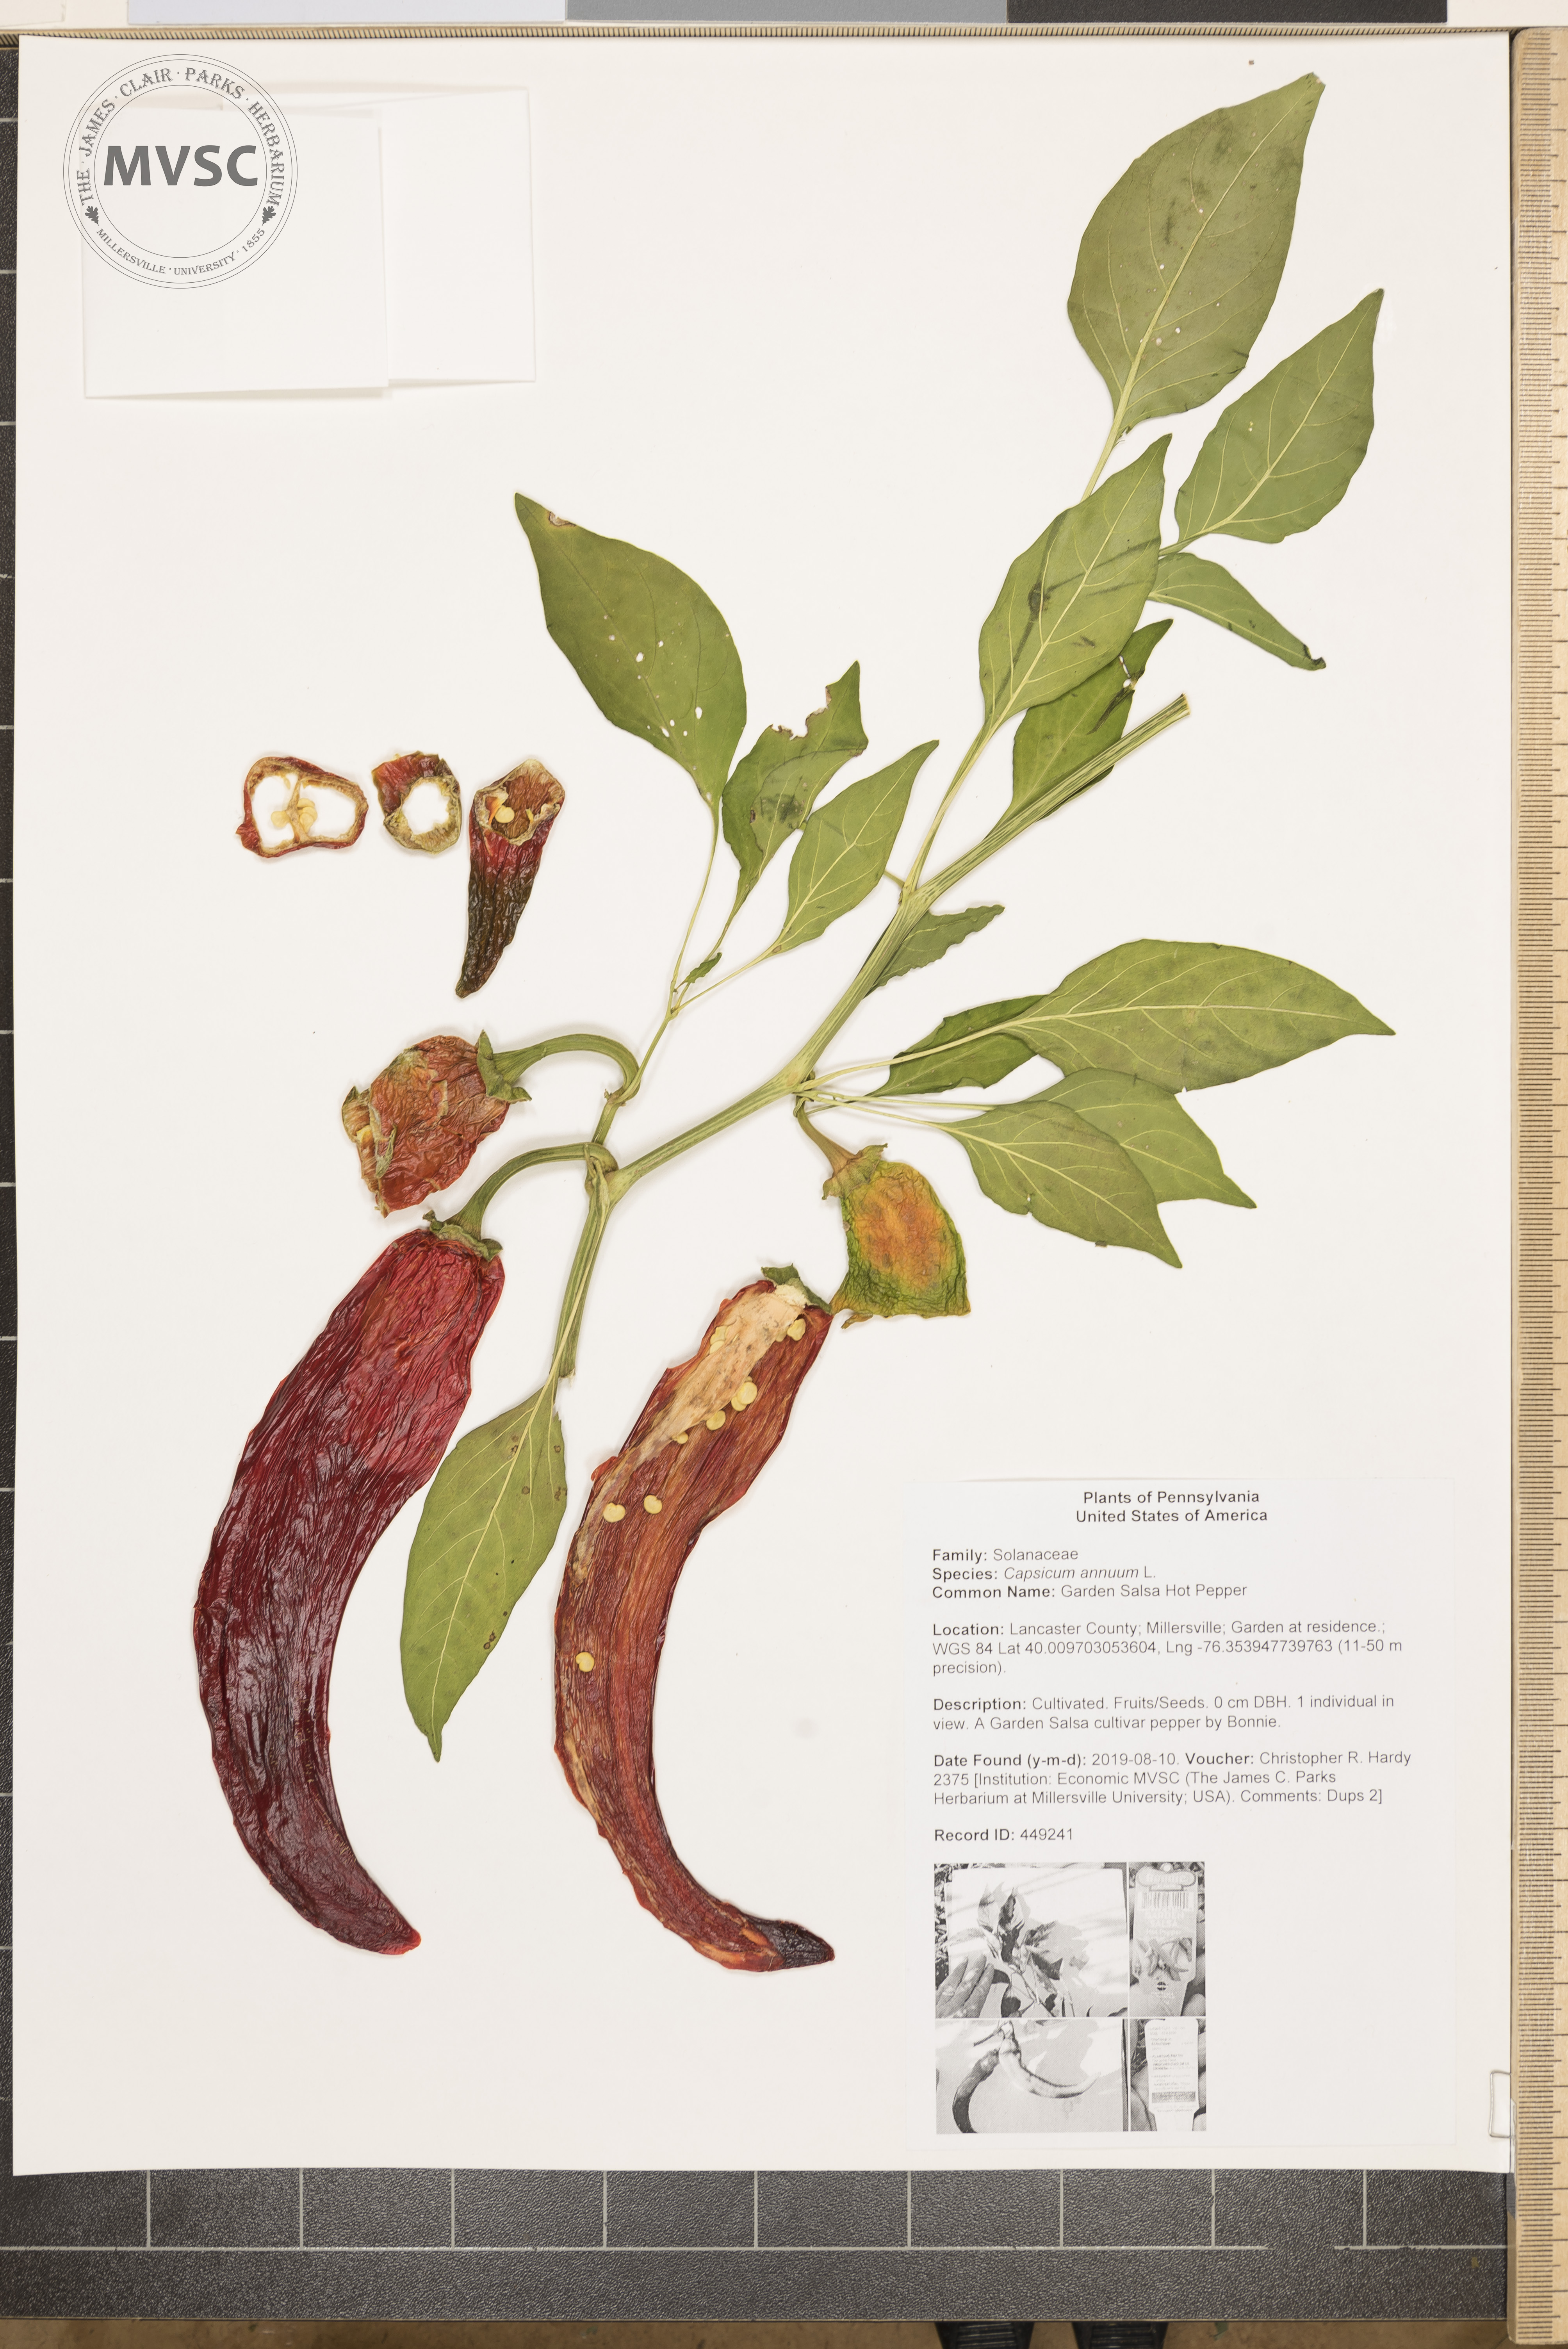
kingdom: Plantae
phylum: Tracheophyta
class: Magnoliopsida
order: Solanales
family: Solanaceae
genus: Capsicum
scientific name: Capsicum annuum
